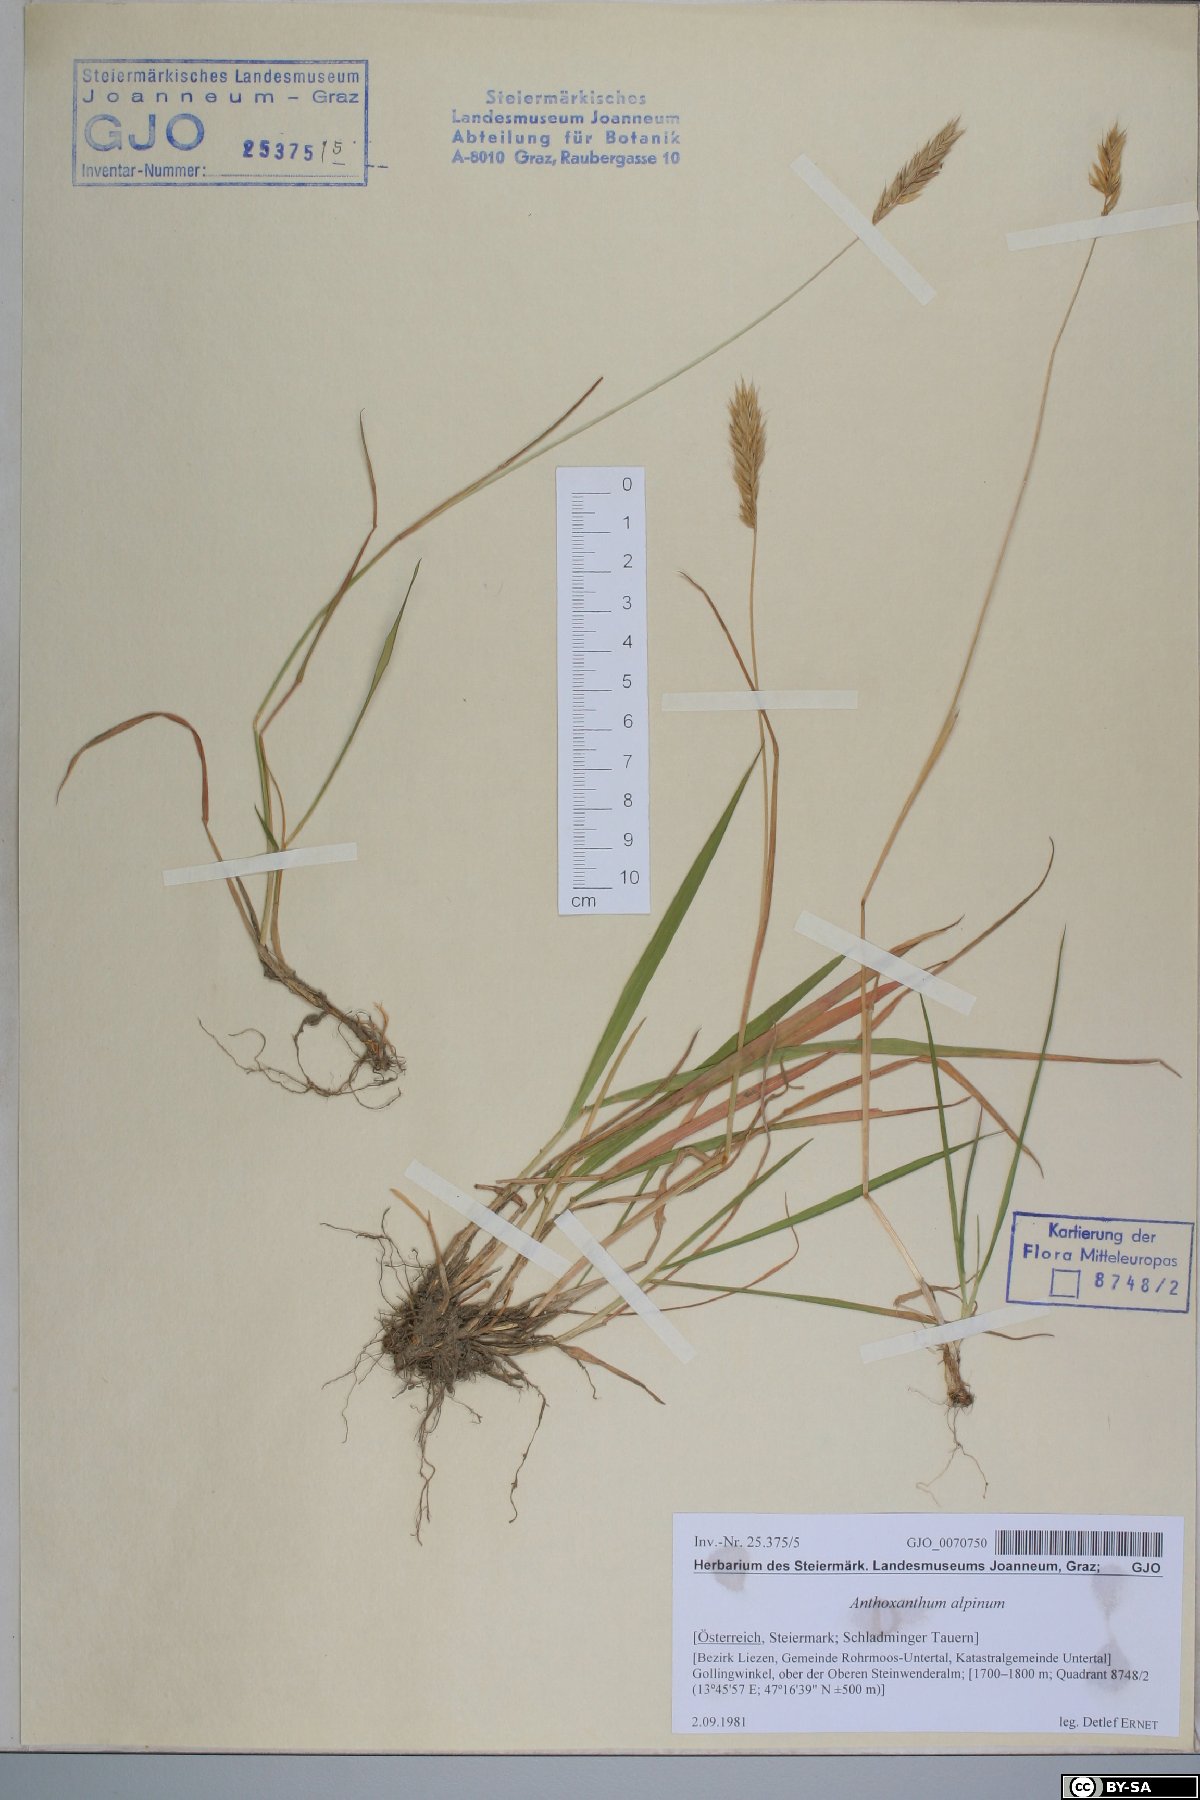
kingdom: Plantae
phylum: Tracheophyta
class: Liliopsida
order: Poales
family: Poaceae
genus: Anthoxanthum
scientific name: Anthoxanthum nipponicum
